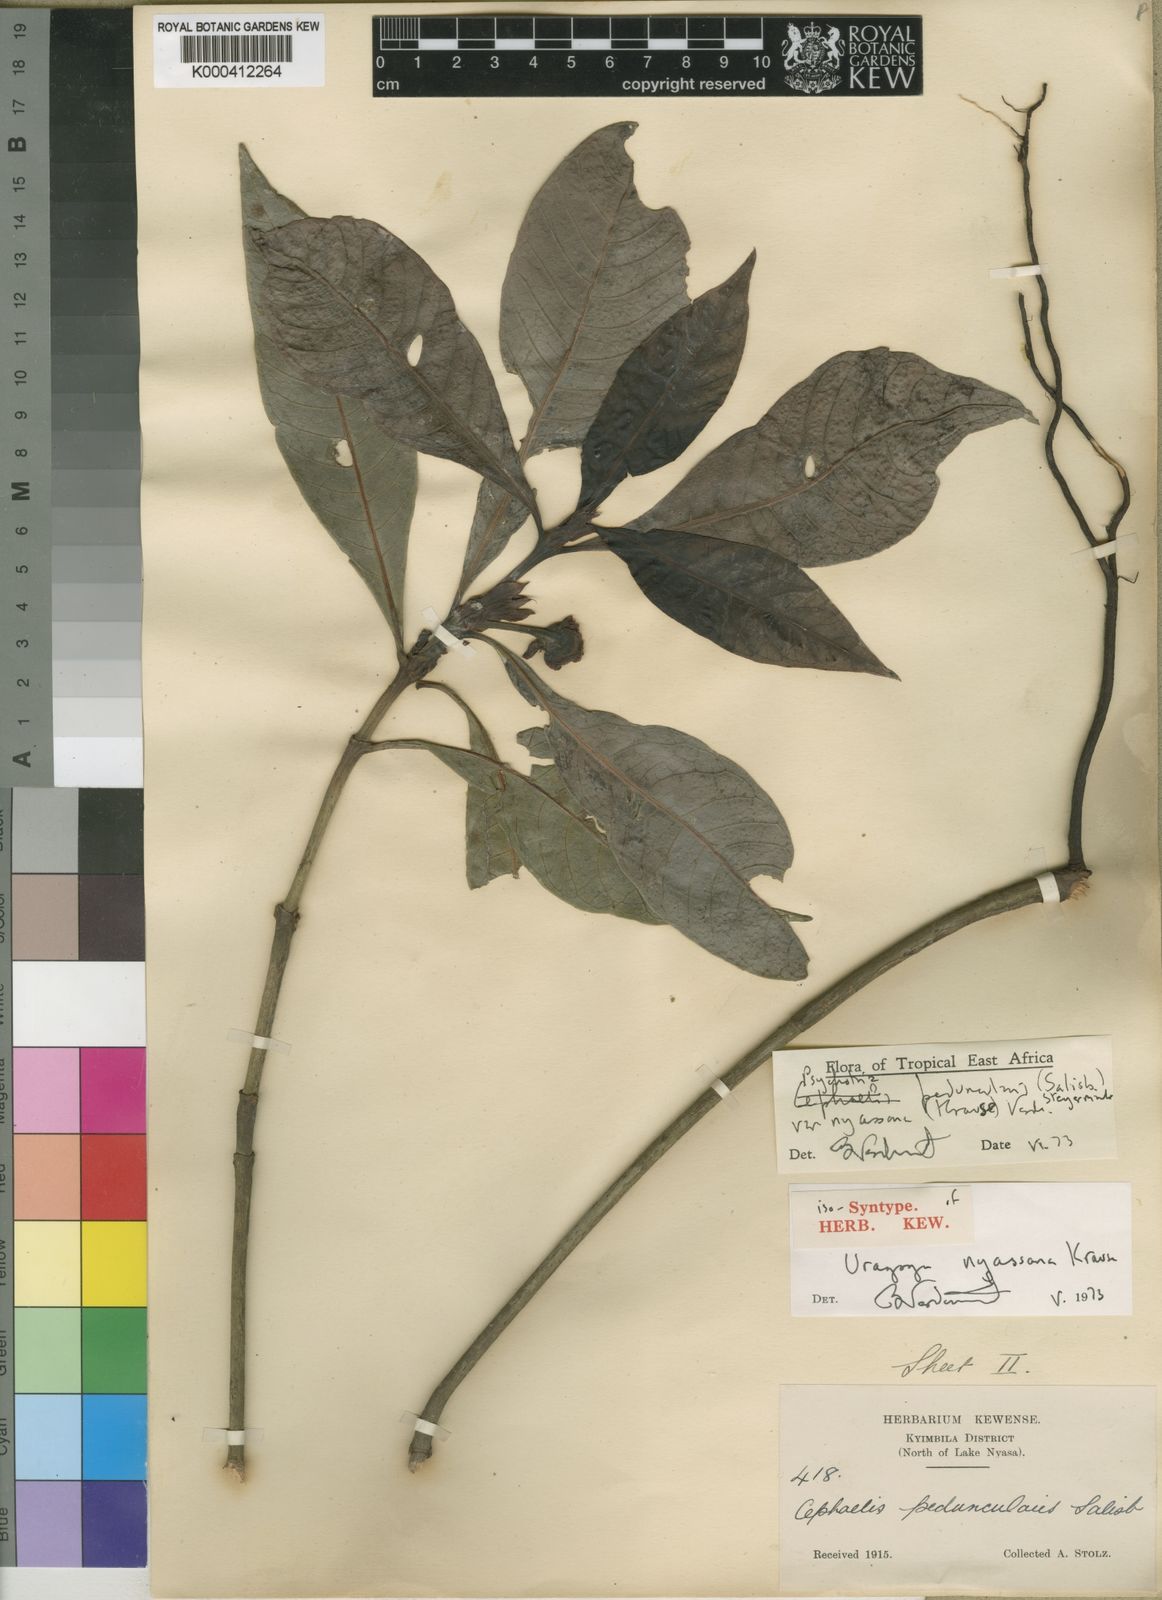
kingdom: Plantae
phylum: Tracheophyta
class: Magnoliopsida
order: Gentianales
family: Rubiaceae
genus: Psychotria
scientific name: Psychotria peduncularis
